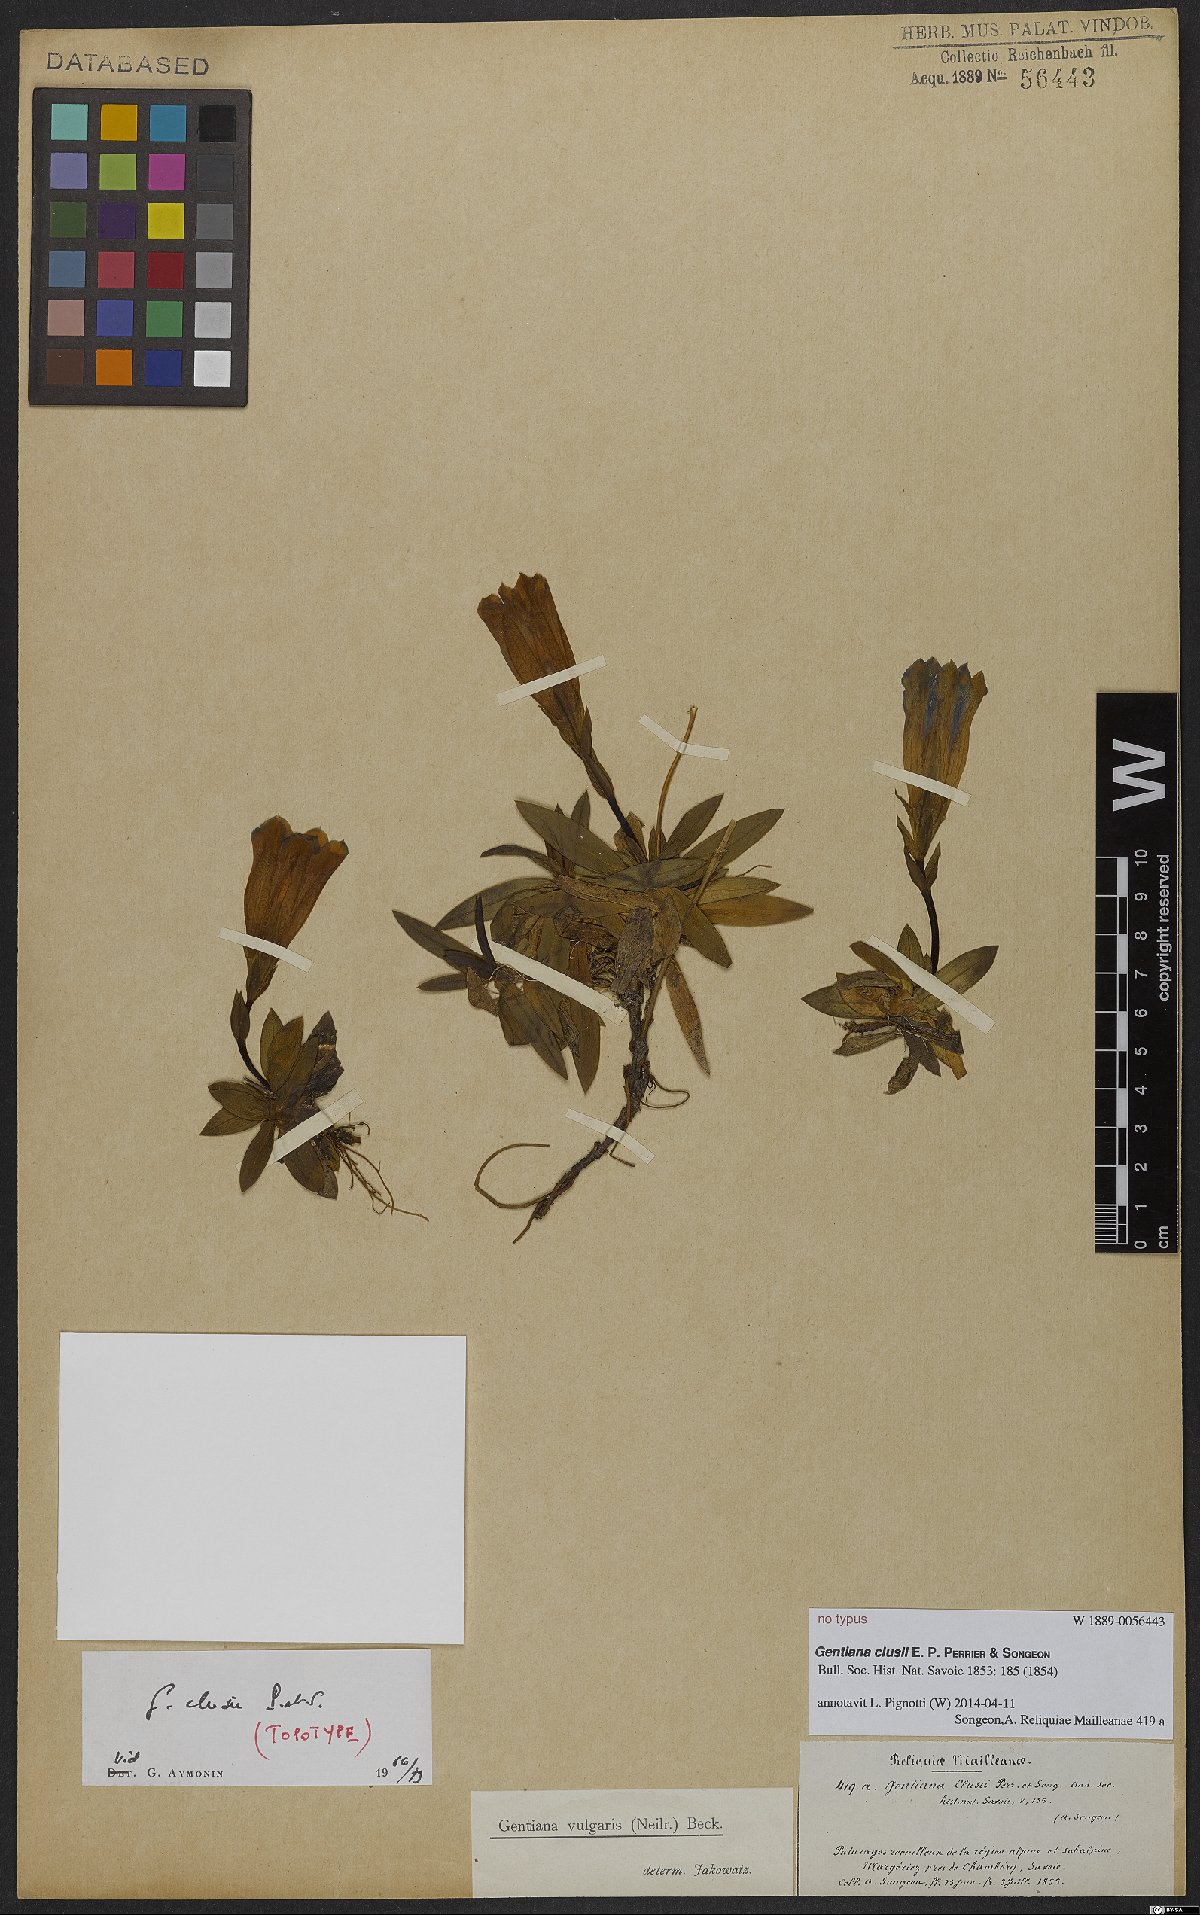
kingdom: Plantae
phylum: Tracheophyta
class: Magnoliopsida
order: Gentianales
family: Gentianaceae
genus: Gentiana
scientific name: Gentiana clusii
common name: Trumpet gentian
